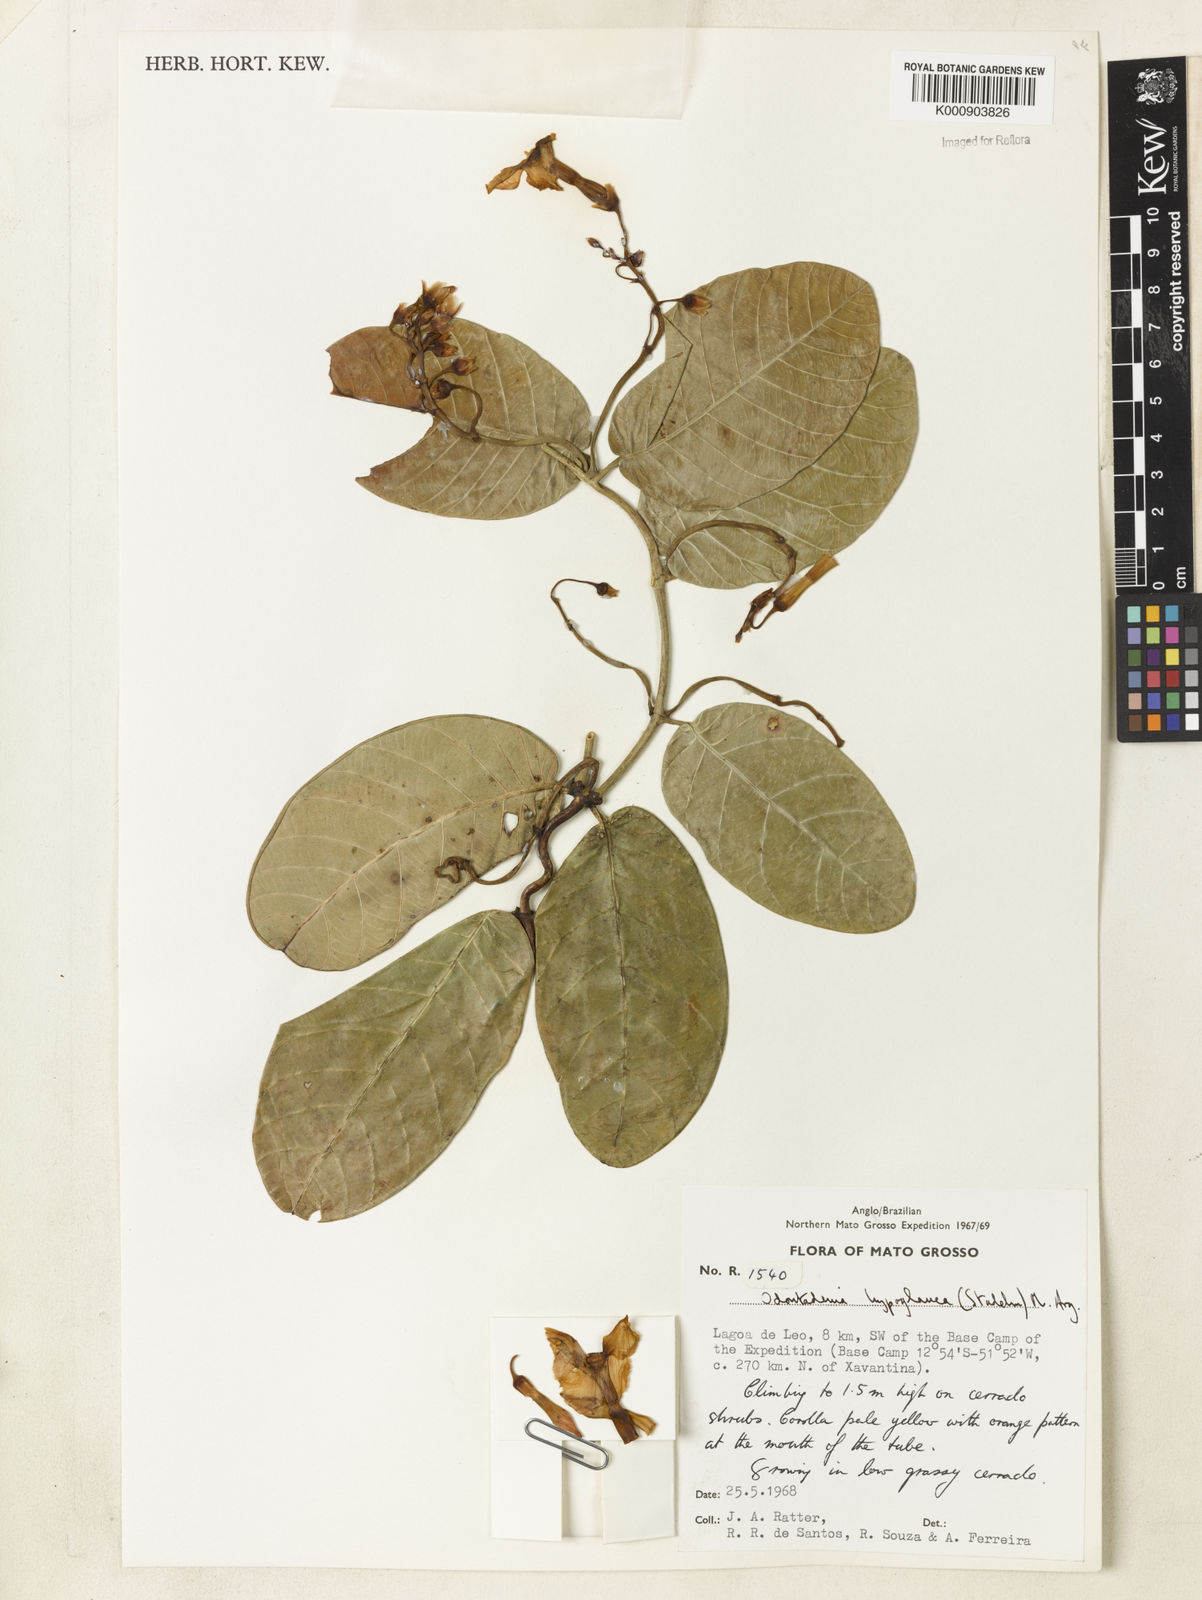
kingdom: Plantae
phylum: Tracheophyta
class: Magnoliopsida
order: Gentianales
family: Apocynaceae
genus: Odontadenia
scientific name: Odontadenia
